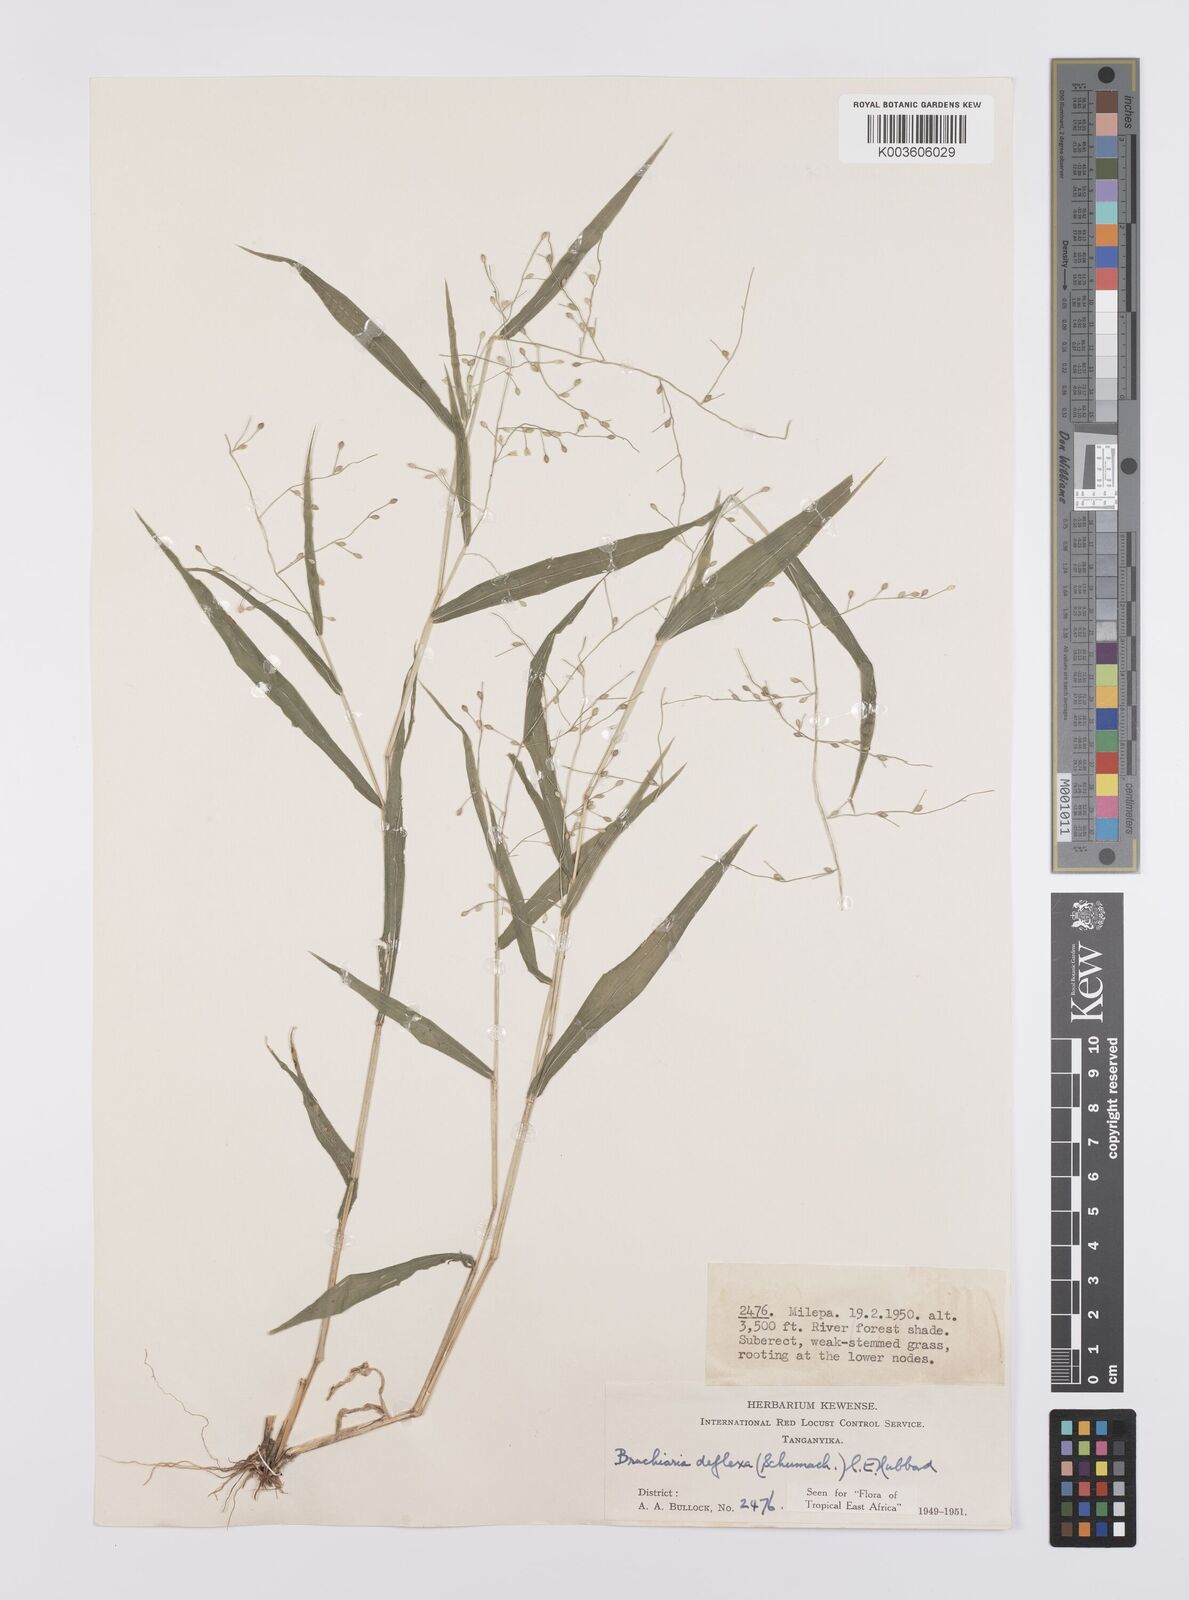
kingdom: Plantae
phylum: Tracheophyta
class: Liliopsida
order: Poales
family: Poaceae
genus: Urochloa
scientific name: Urochloa deflexa
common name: Guinea millet
